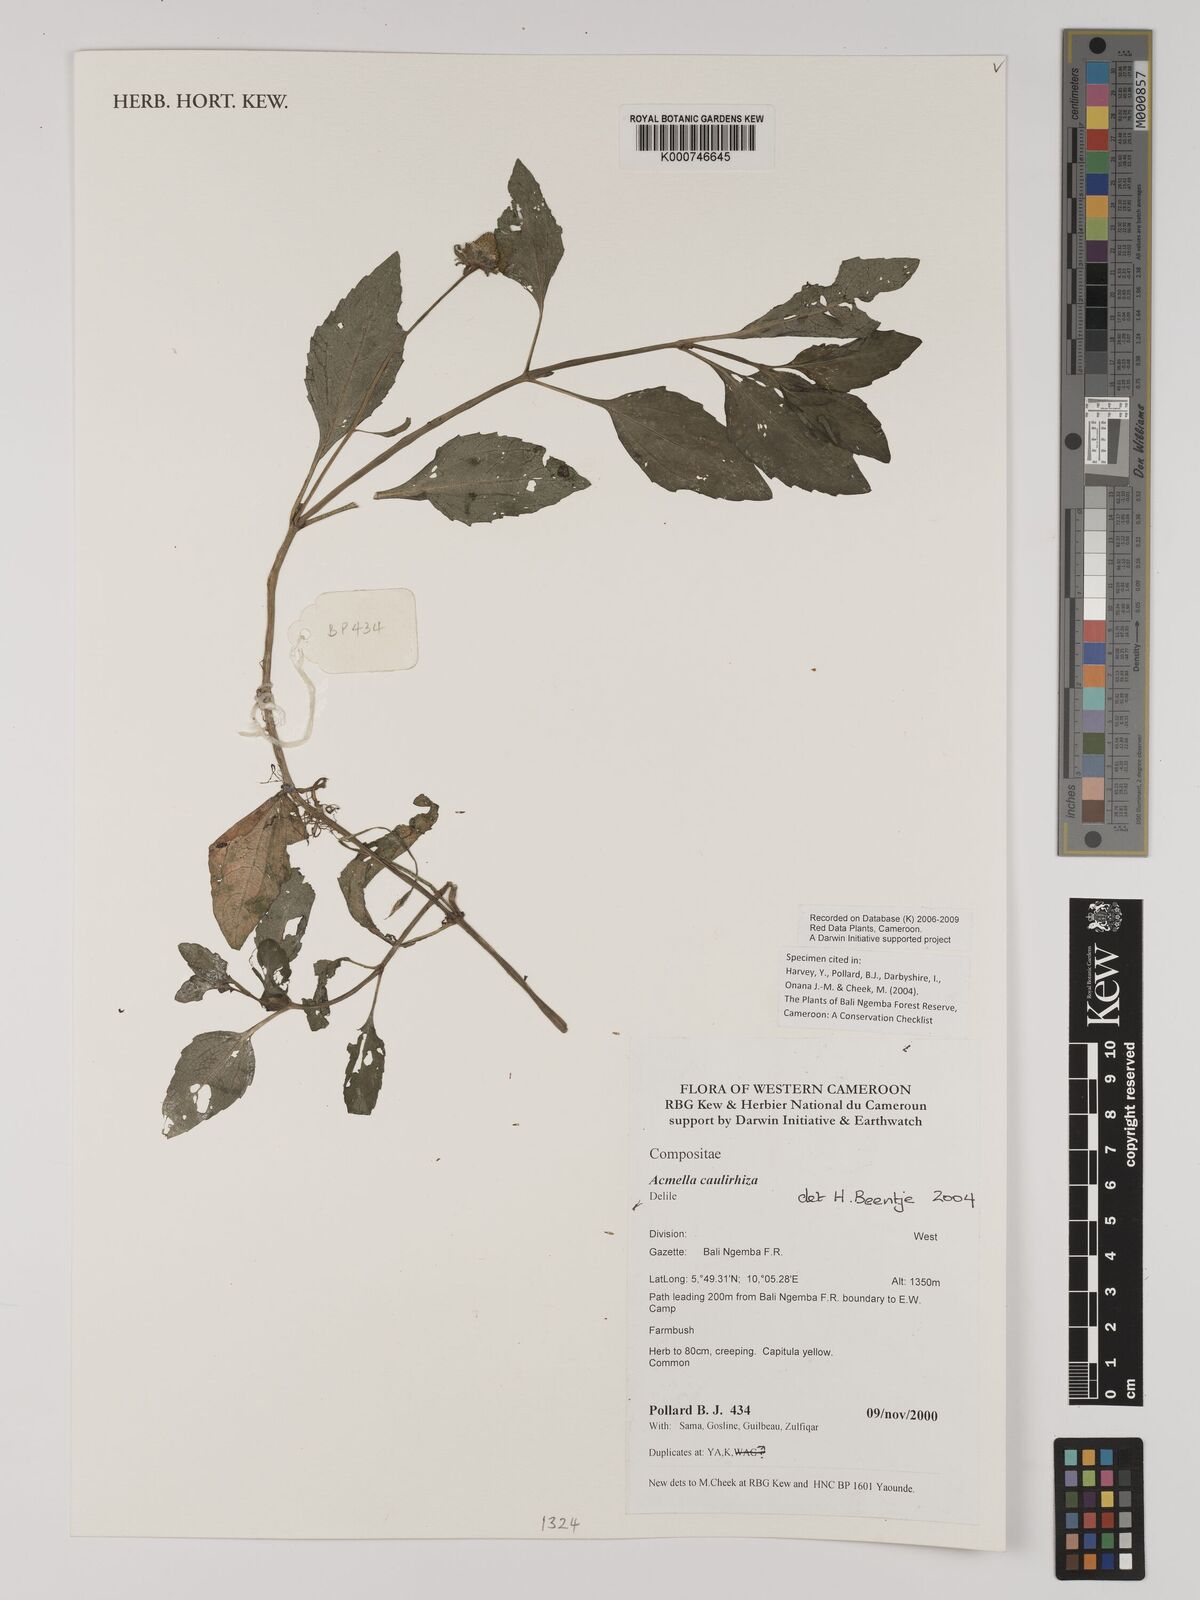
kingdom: Plantae
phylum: Tracheophyta
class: Magnoliopsida
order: Asterales
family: Asteraceae
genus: Acmella
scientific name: Acmella caulirhiza
